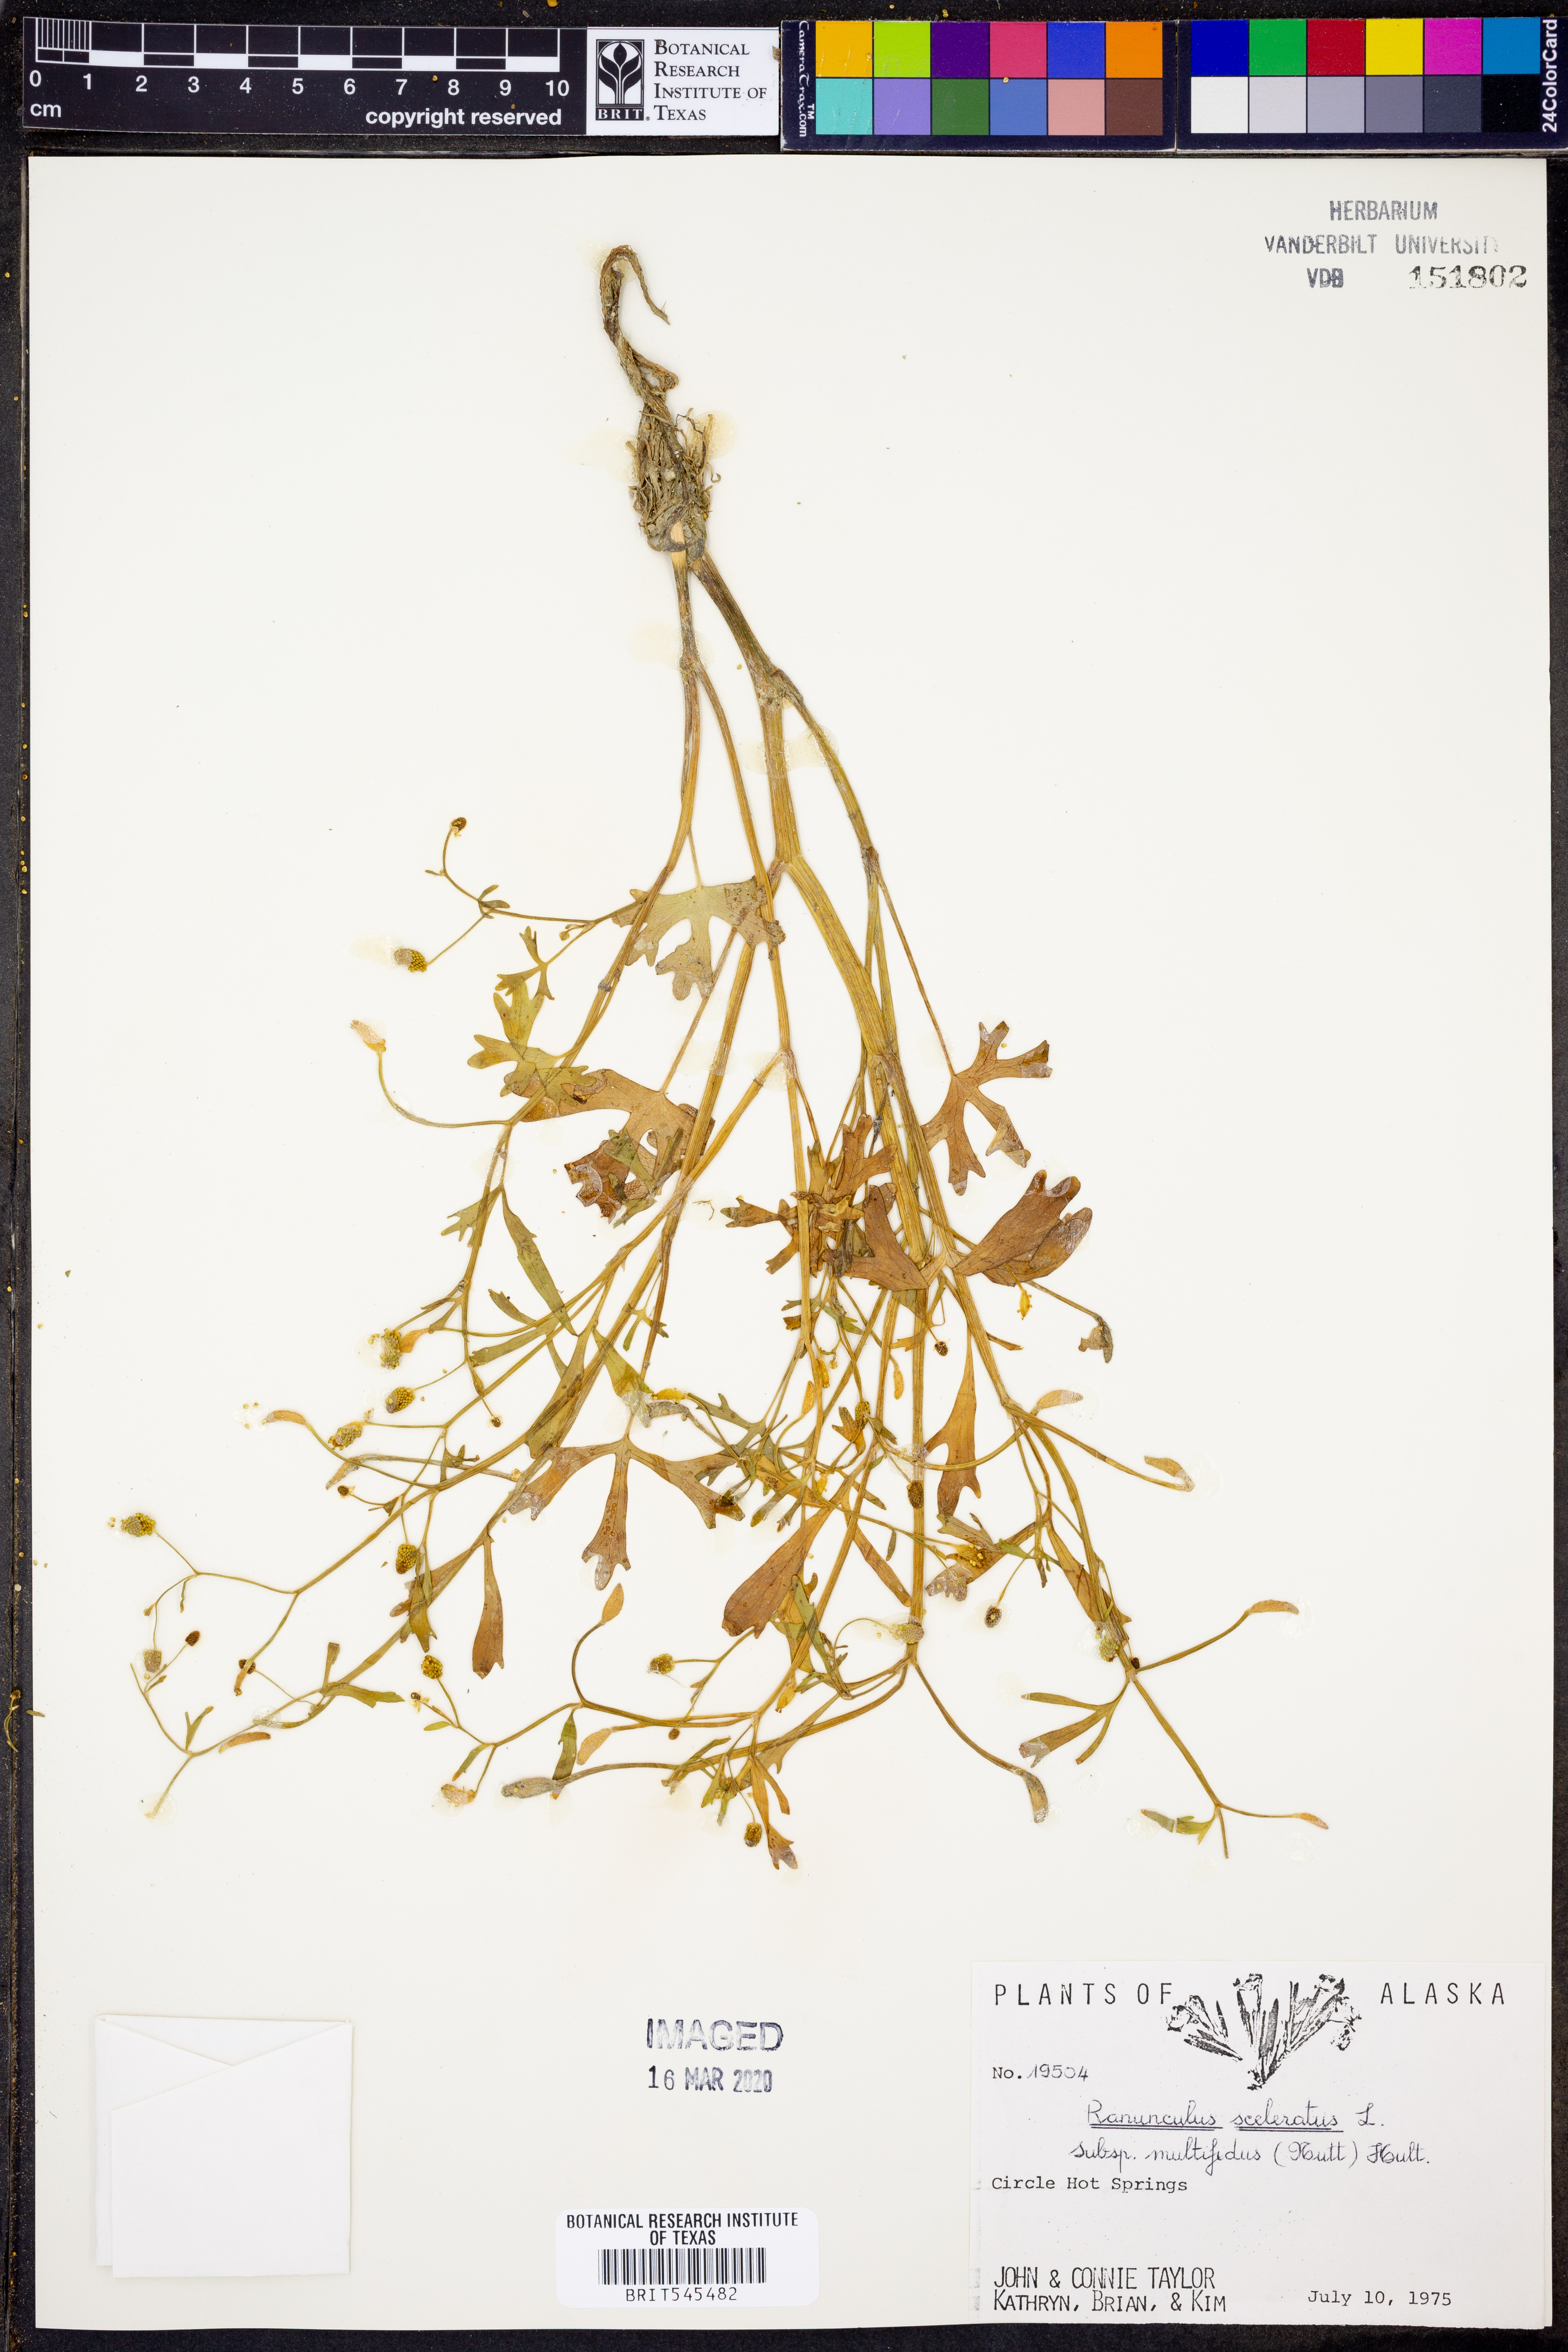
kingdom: Plantae
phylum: Tracheophyta
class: Magnoliopsida
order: Ranunculales
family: Ranunculaceae
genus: Ranunculus
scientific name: Ranunculus sceleratus
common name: Celery-leaved buttercup
